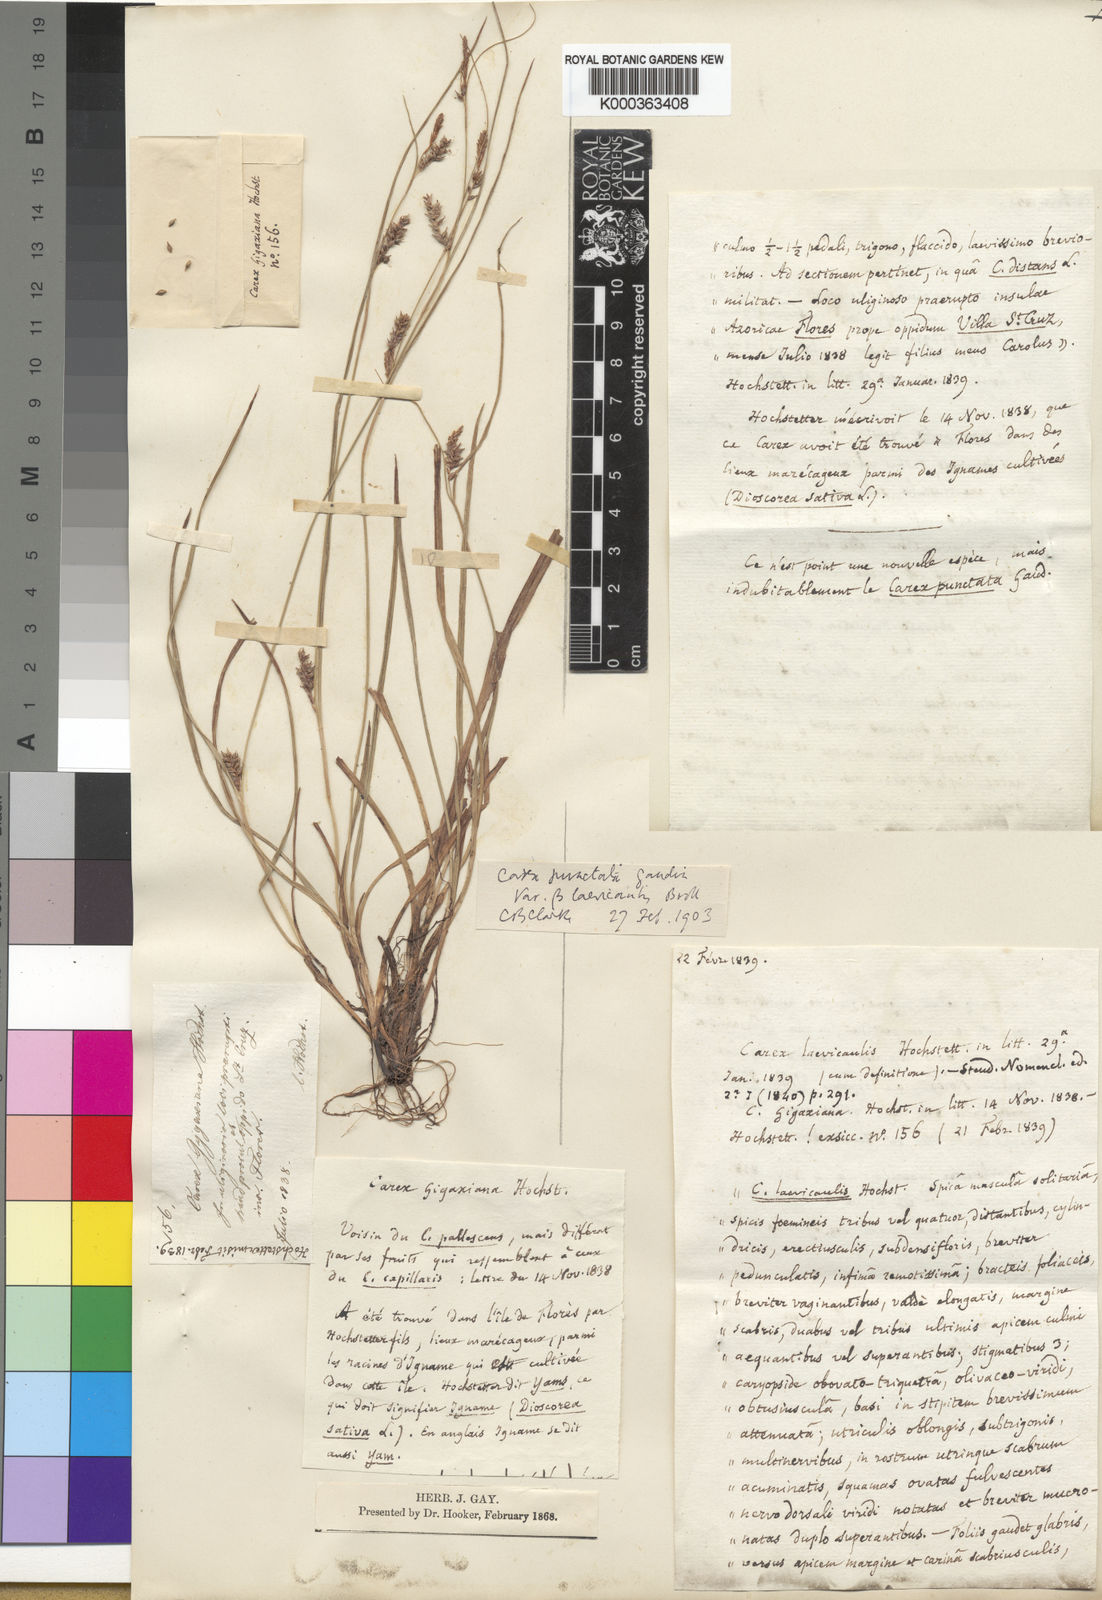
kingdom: Plantae
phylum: Tracheophyta
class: Liliopsida
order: Poales
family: Cyperaceae
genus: Carex
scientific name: Carex laevicaulis
